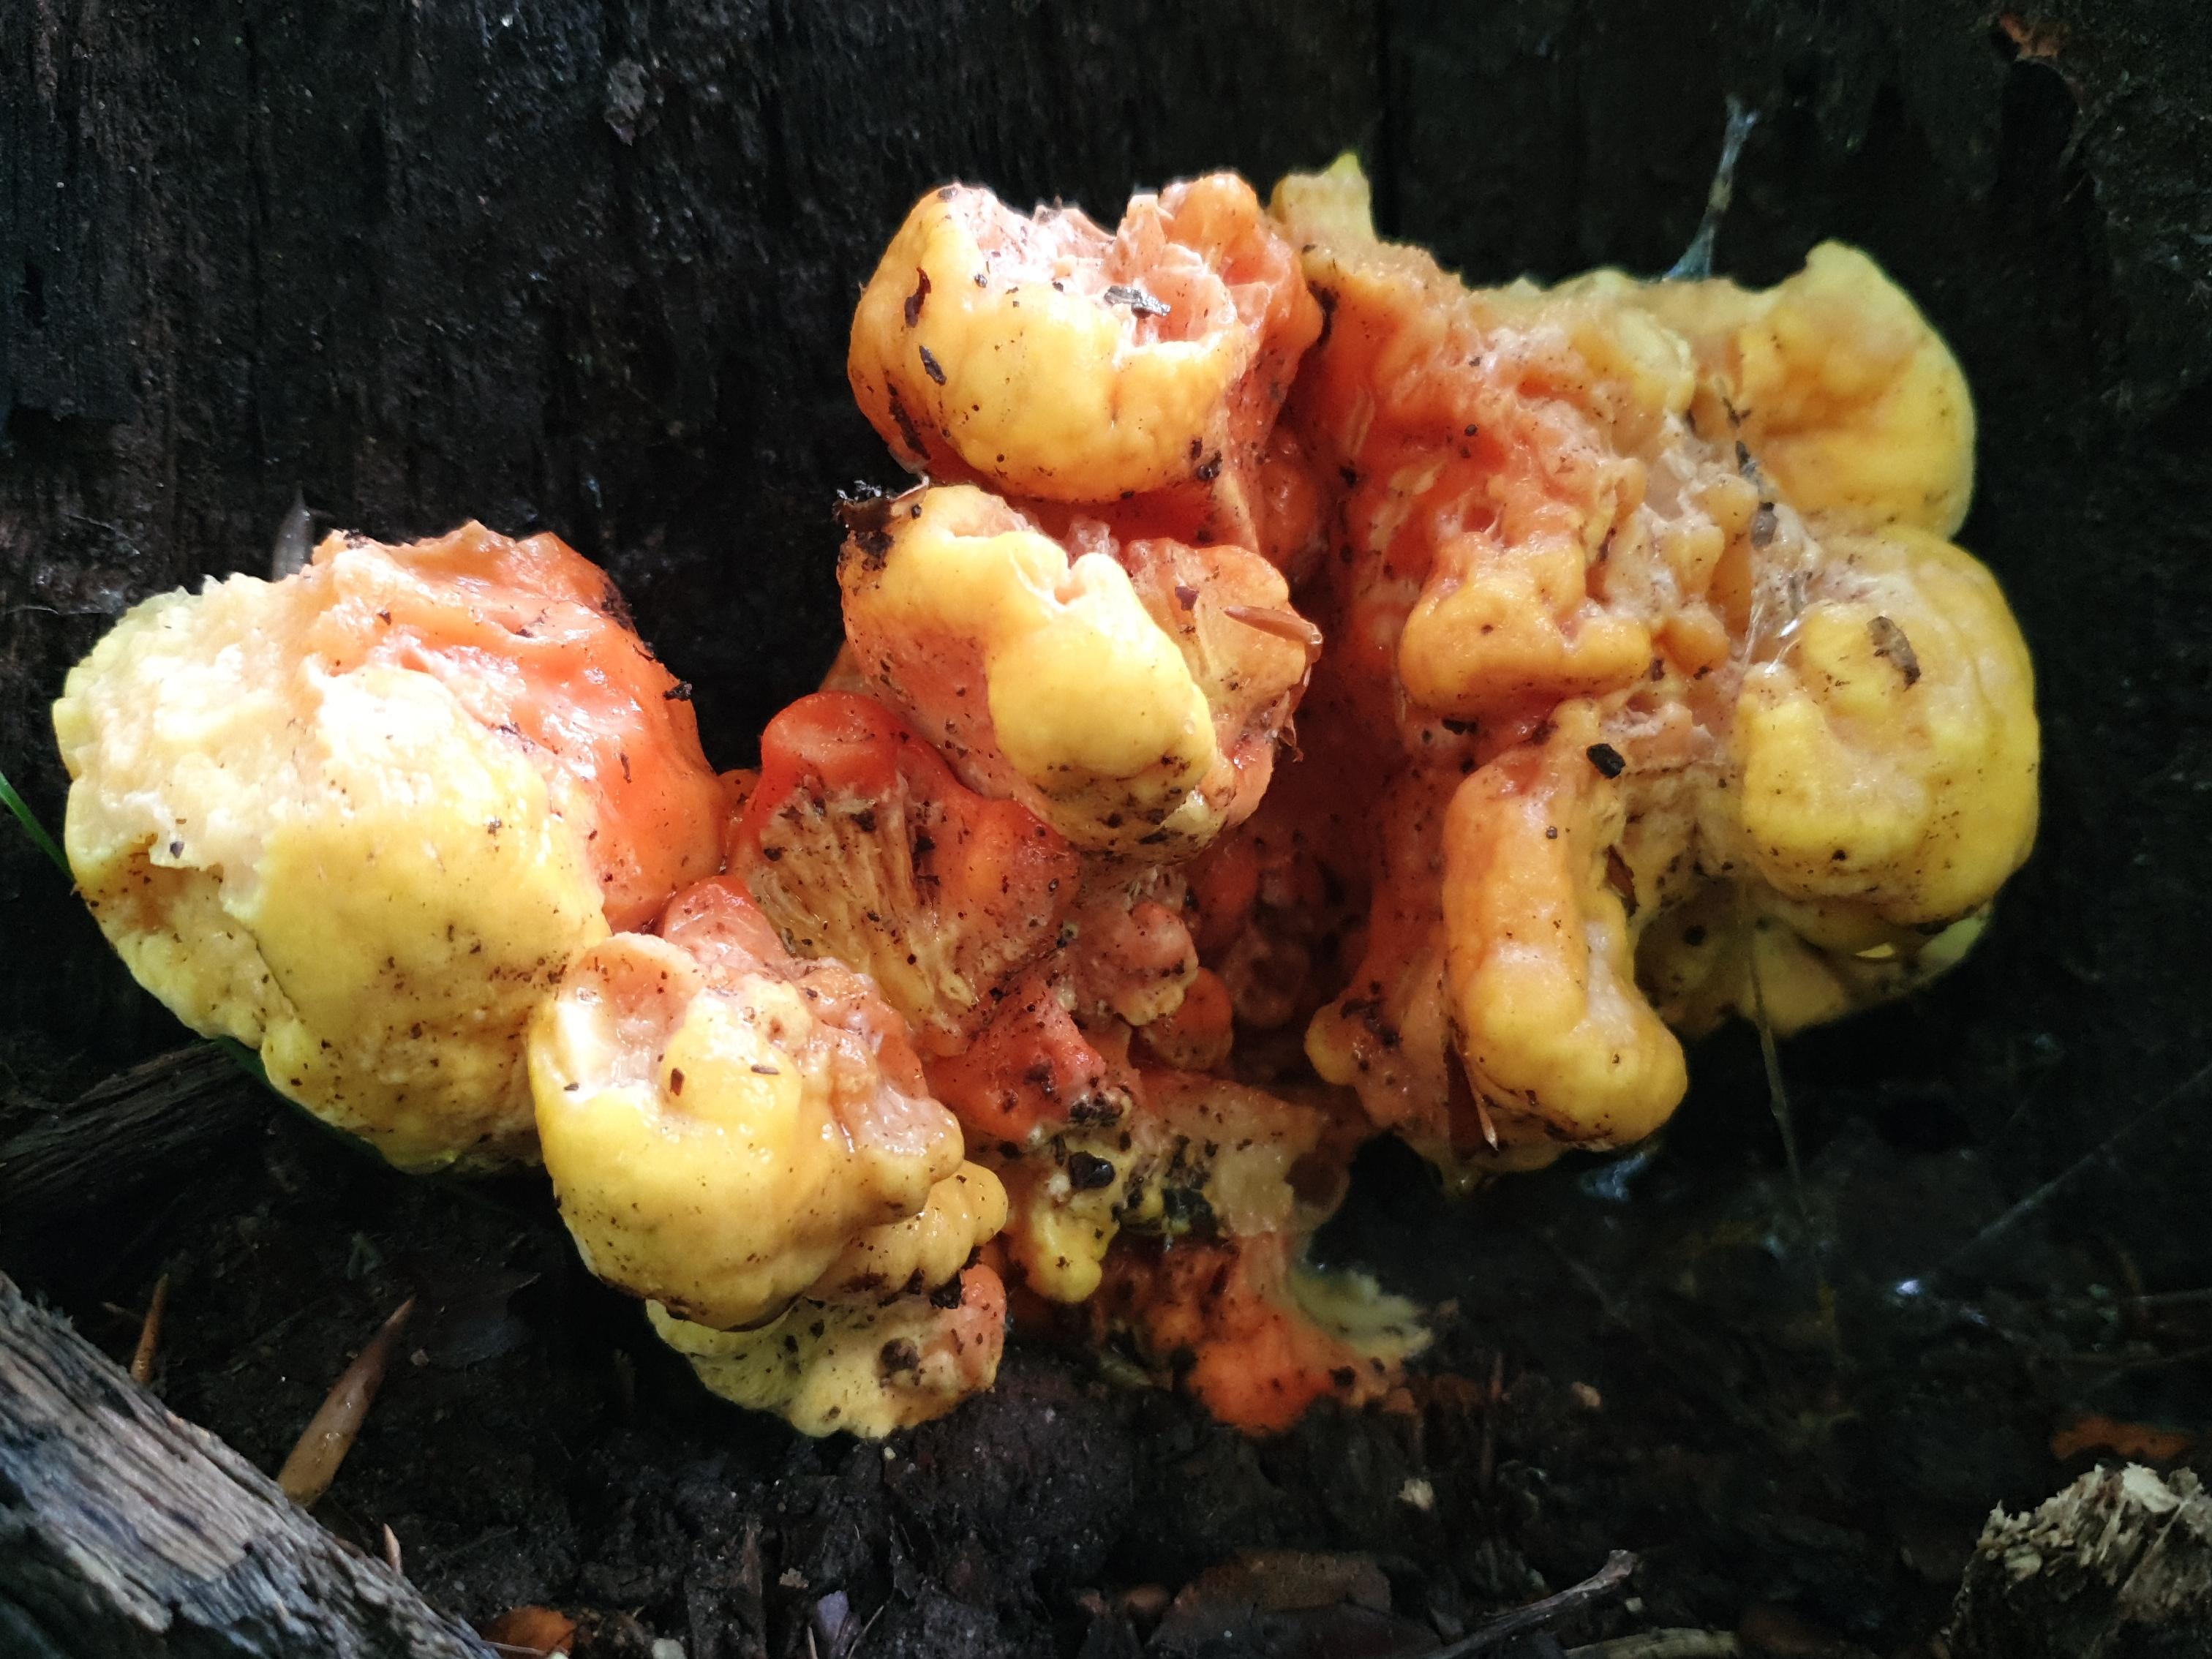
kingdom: Fungi
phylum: Basidiomycota
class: Agaricomycetes
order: Polyporales
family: Laetiporaceae
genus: Laetiporus
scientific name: Laetiporus sulphureus
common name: svovlporesvamp
